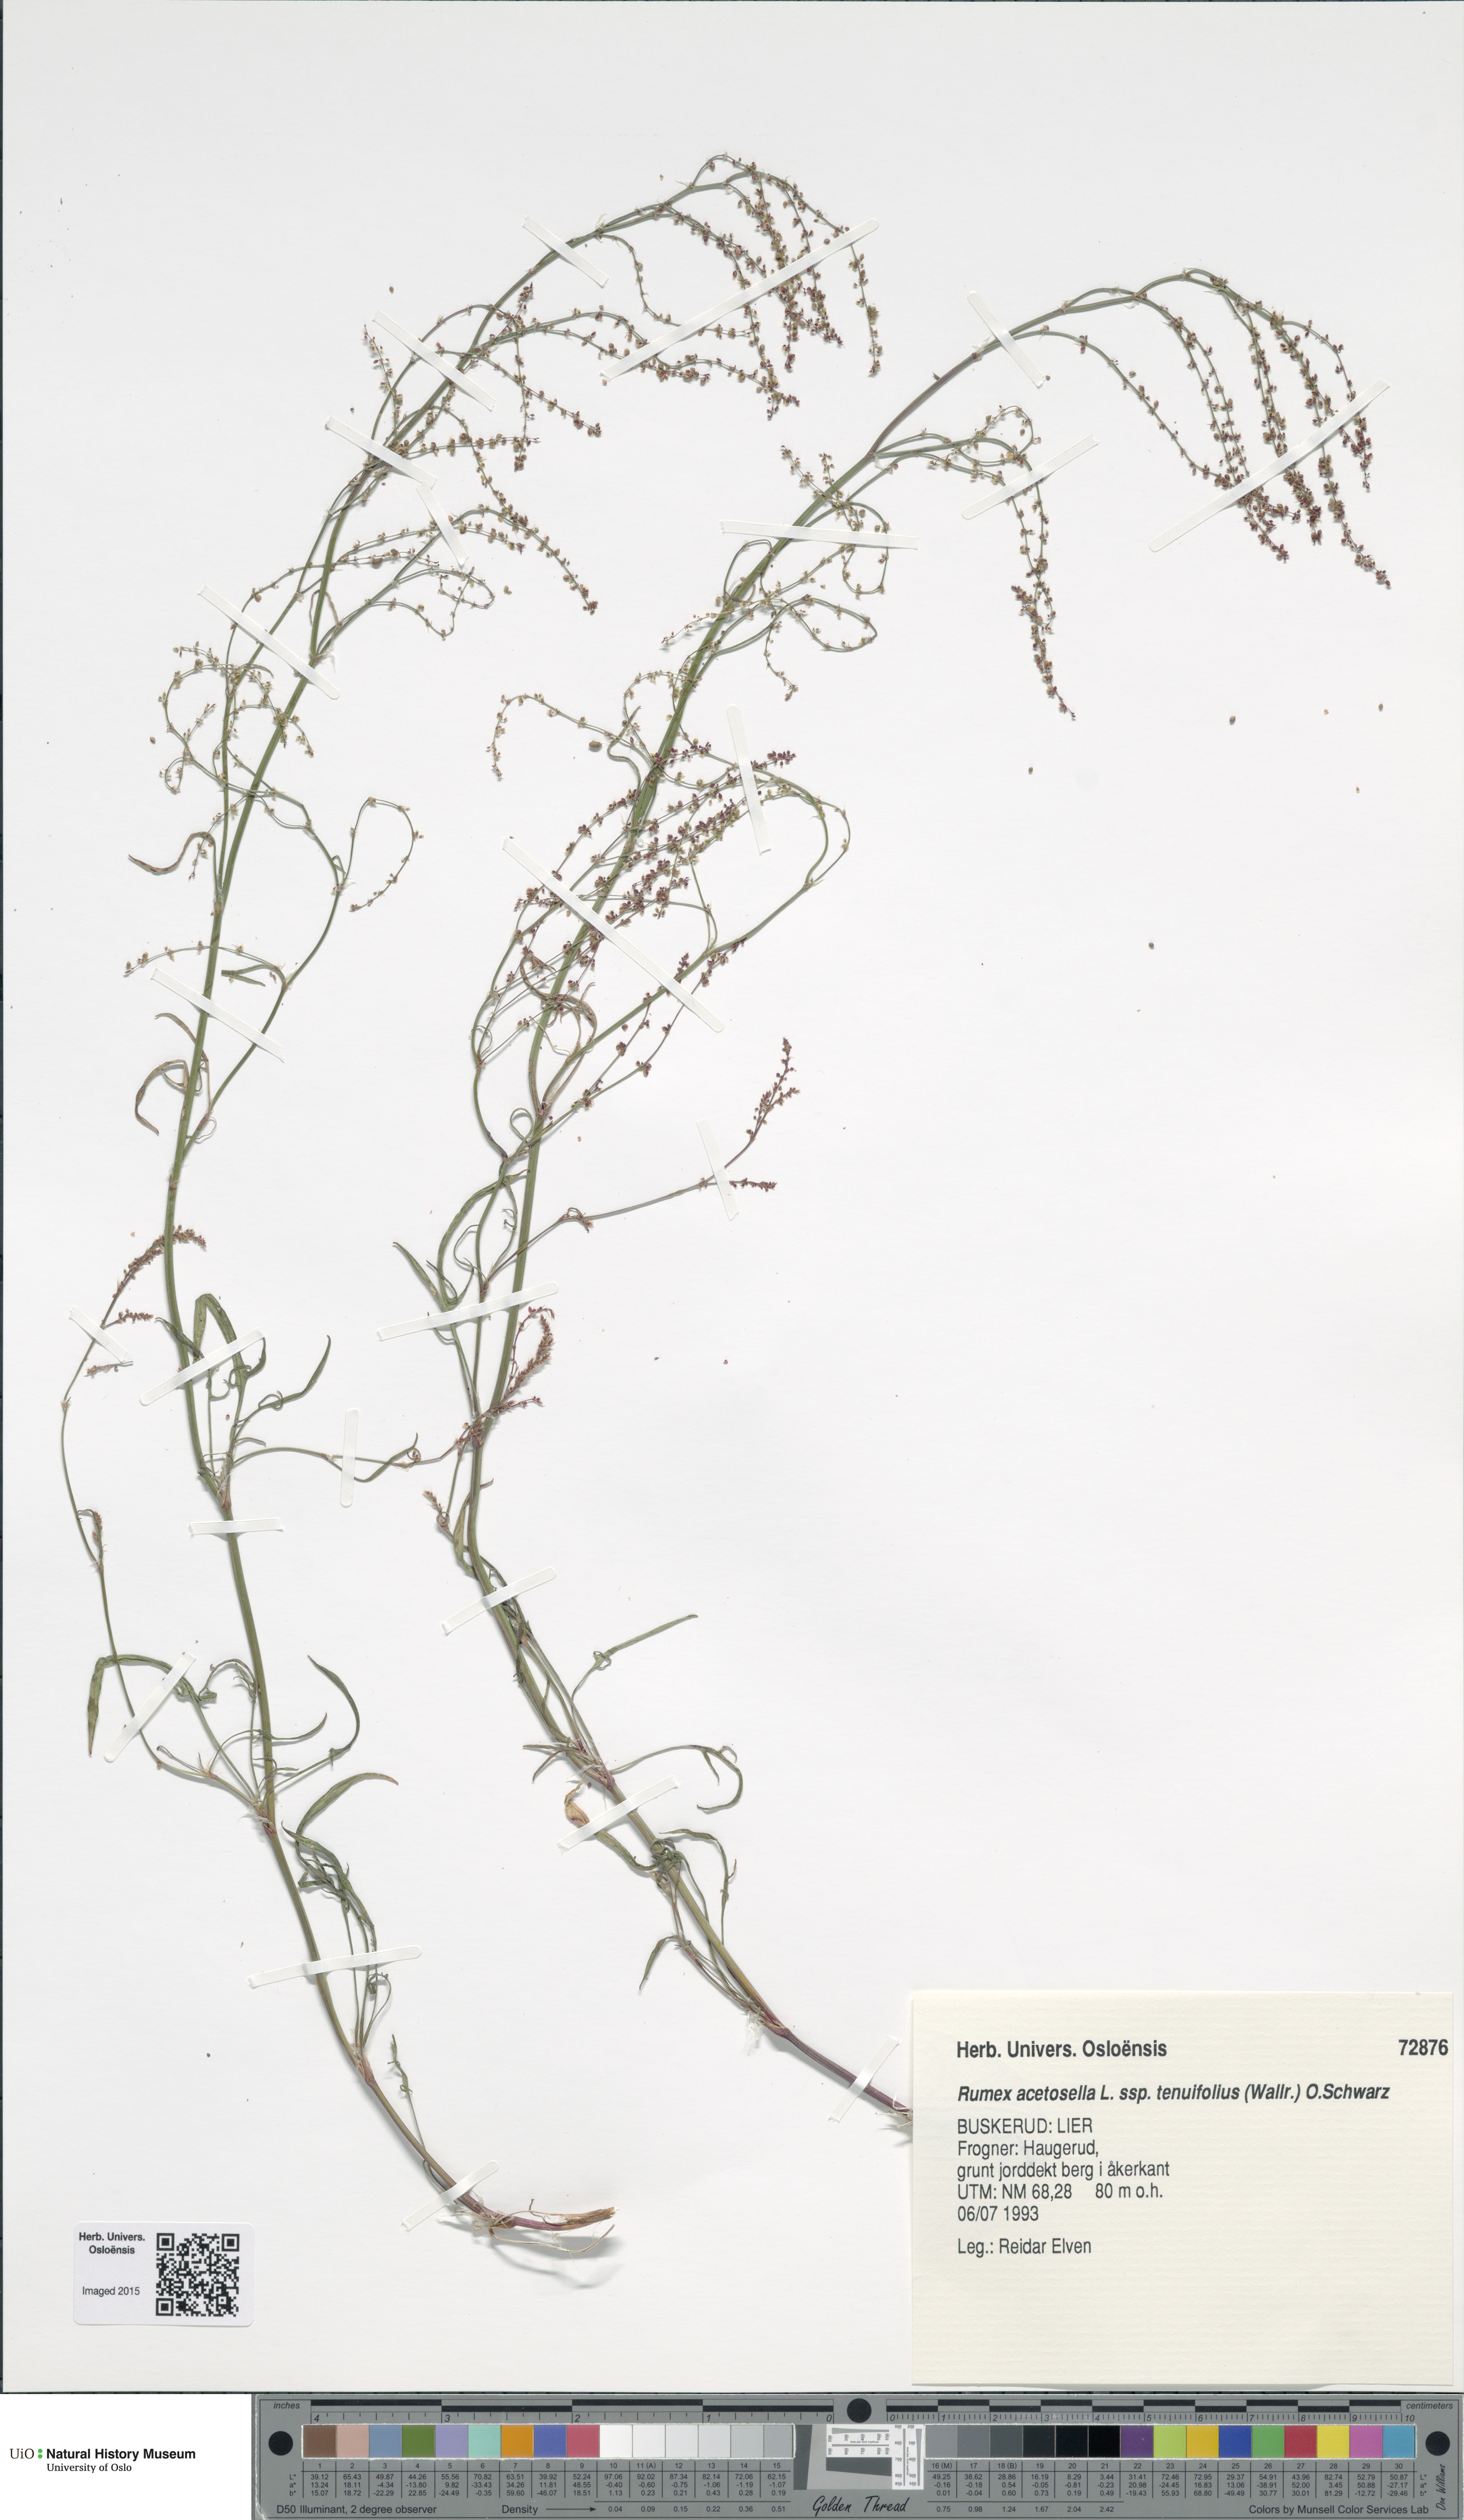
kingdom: Plantae
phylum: Tracheophyta
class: Magnoliopsida
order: Caryophyllales
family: Polygonaceae
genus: Rumex
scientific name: Rumex acetosella
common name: Common sheep sorrel
